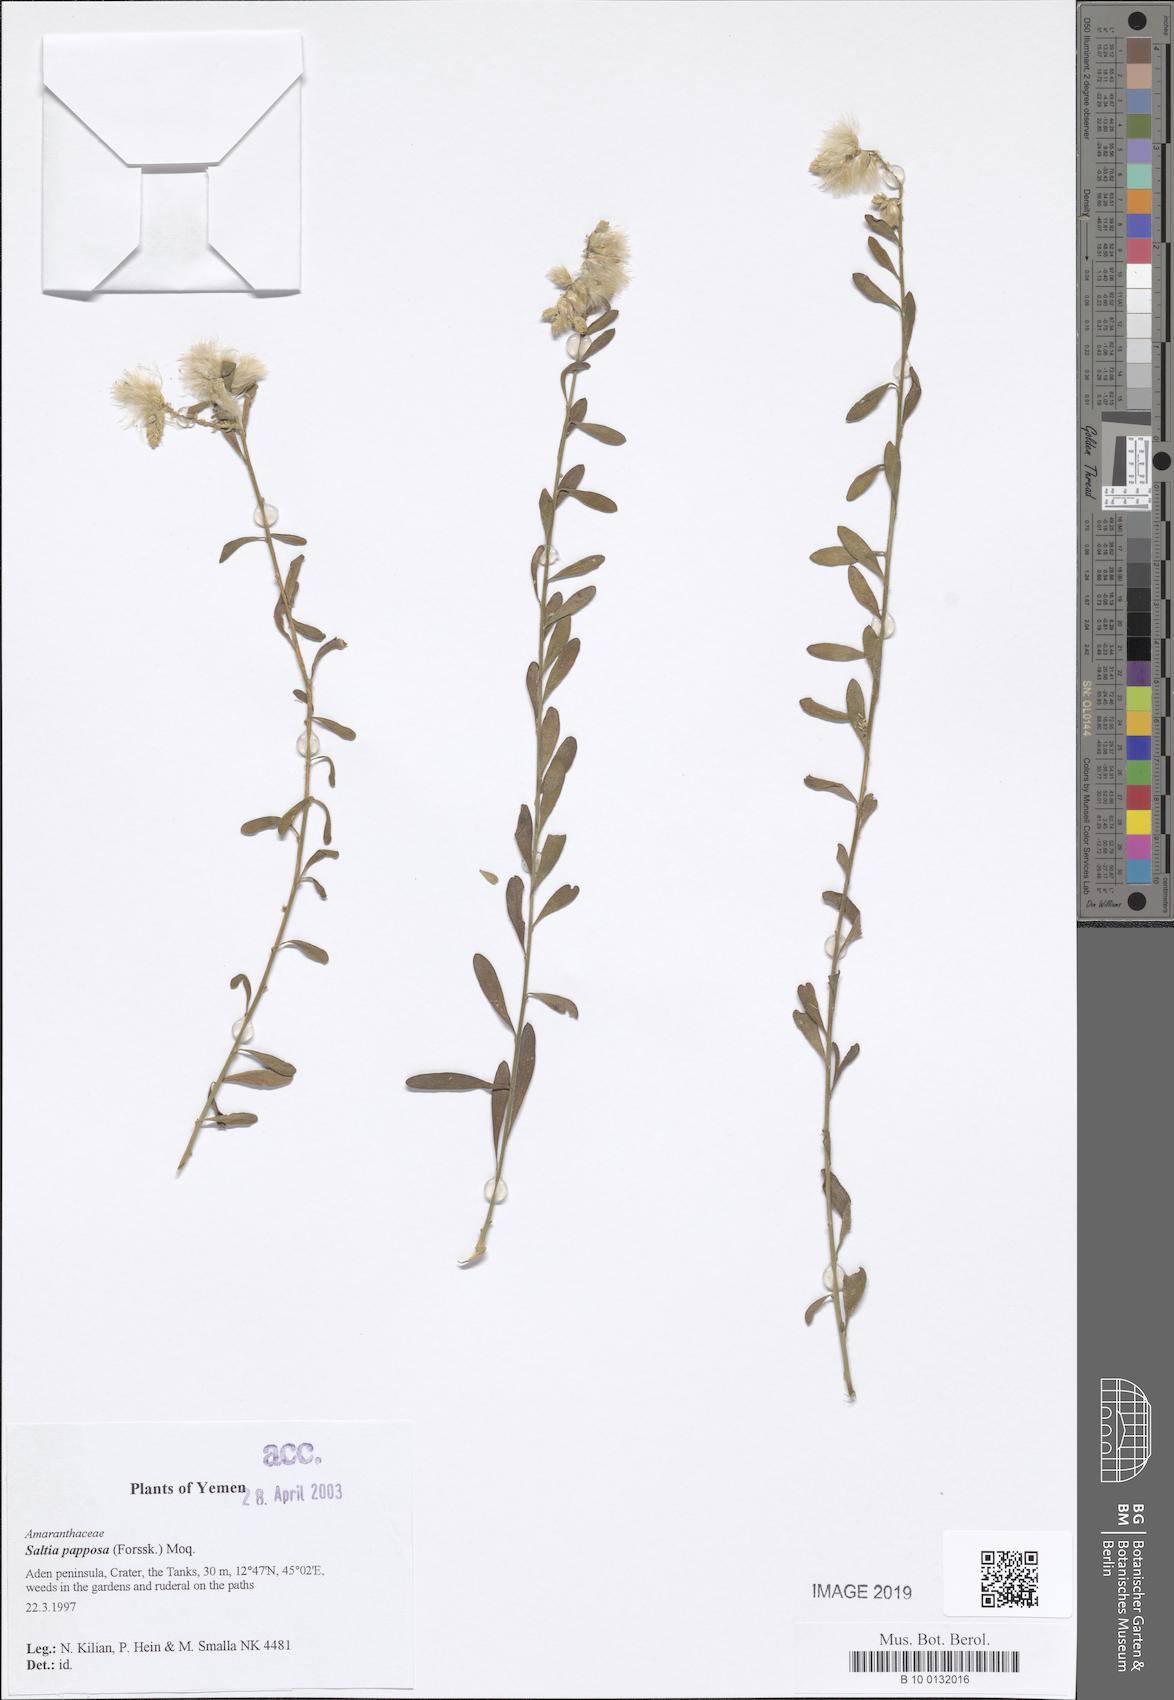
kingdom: Plantae
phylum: Tracheophyta
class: Magnoliopsida
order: Caryophyllales
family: Amaranthaceae
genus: Saltia
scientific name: Saltia papposa
